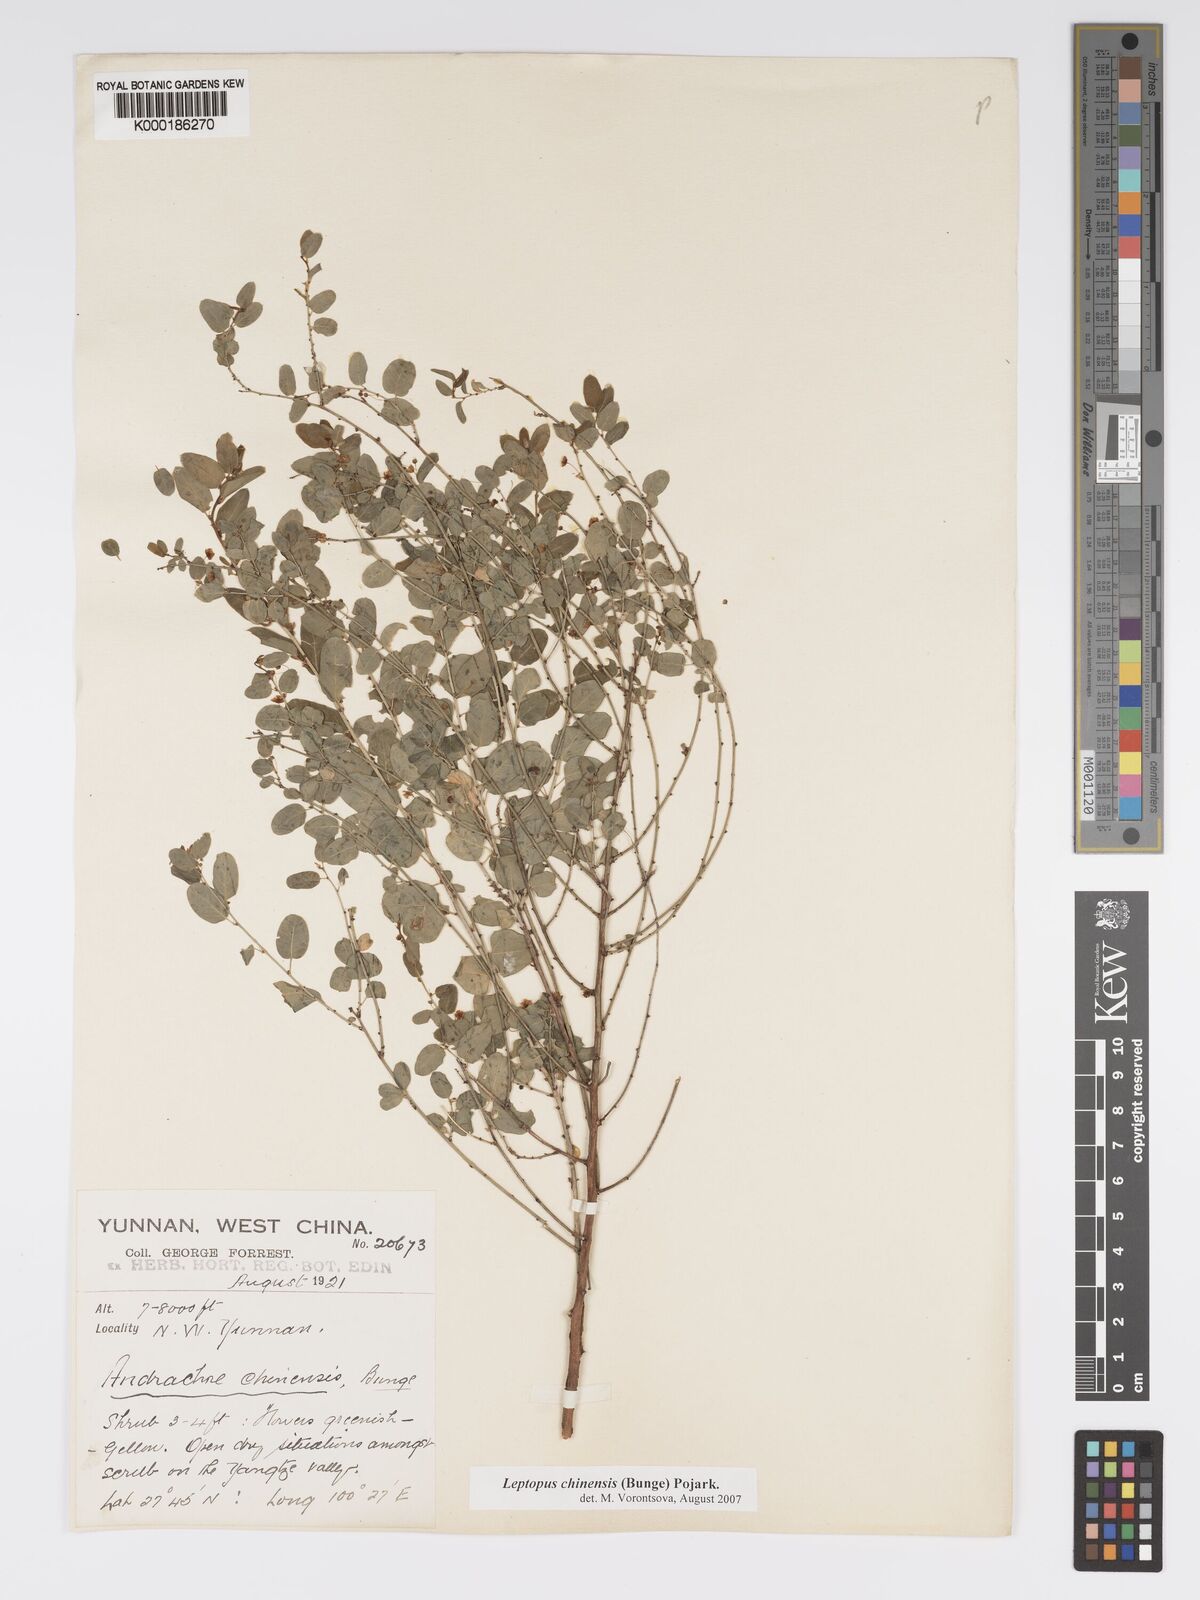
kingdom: Plantae
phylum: Tracheophyta
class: Magnoliopsida
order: Malpighiales
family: Phyllanthaceae
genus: Leptopus
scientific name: Leptopus chinensis
